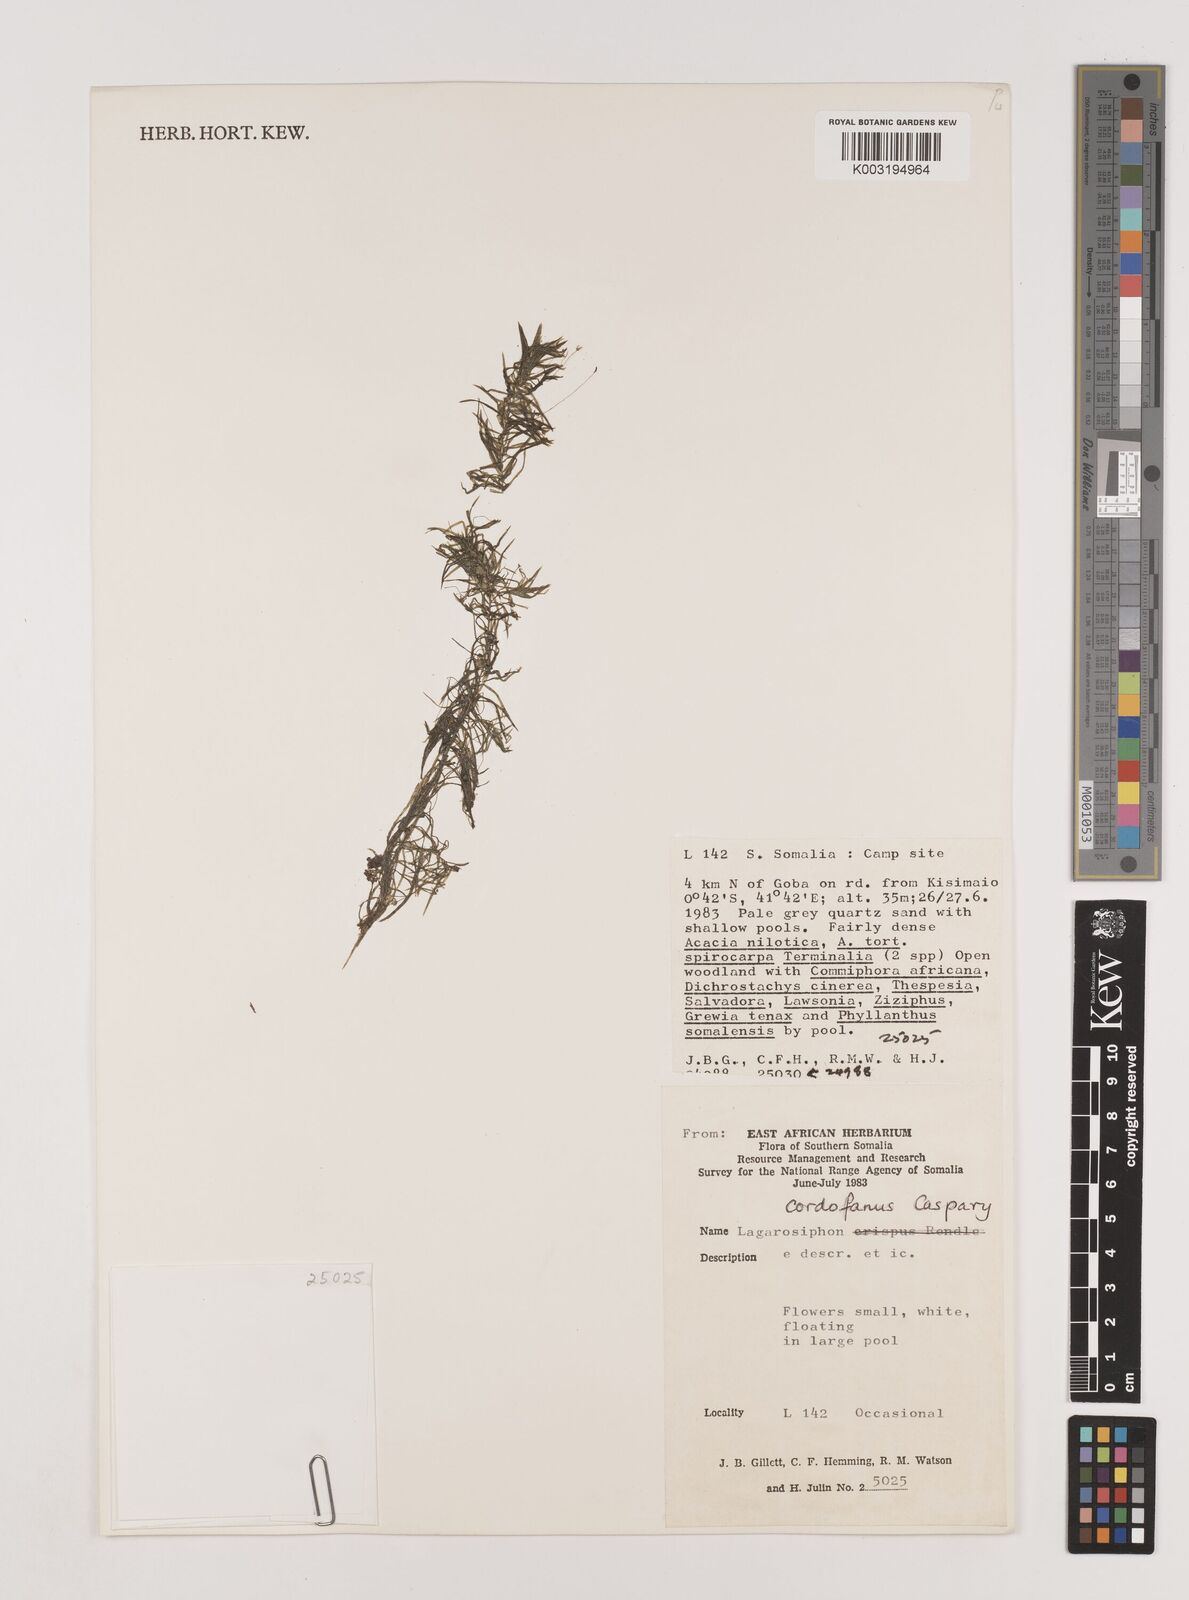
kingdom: Plantae
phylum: Tracheophyta
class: Liliopsida
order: Alismatales
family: Hydrocharitaceae
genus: Lagarosiphon
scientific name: Lagarosiphon cordofanus
